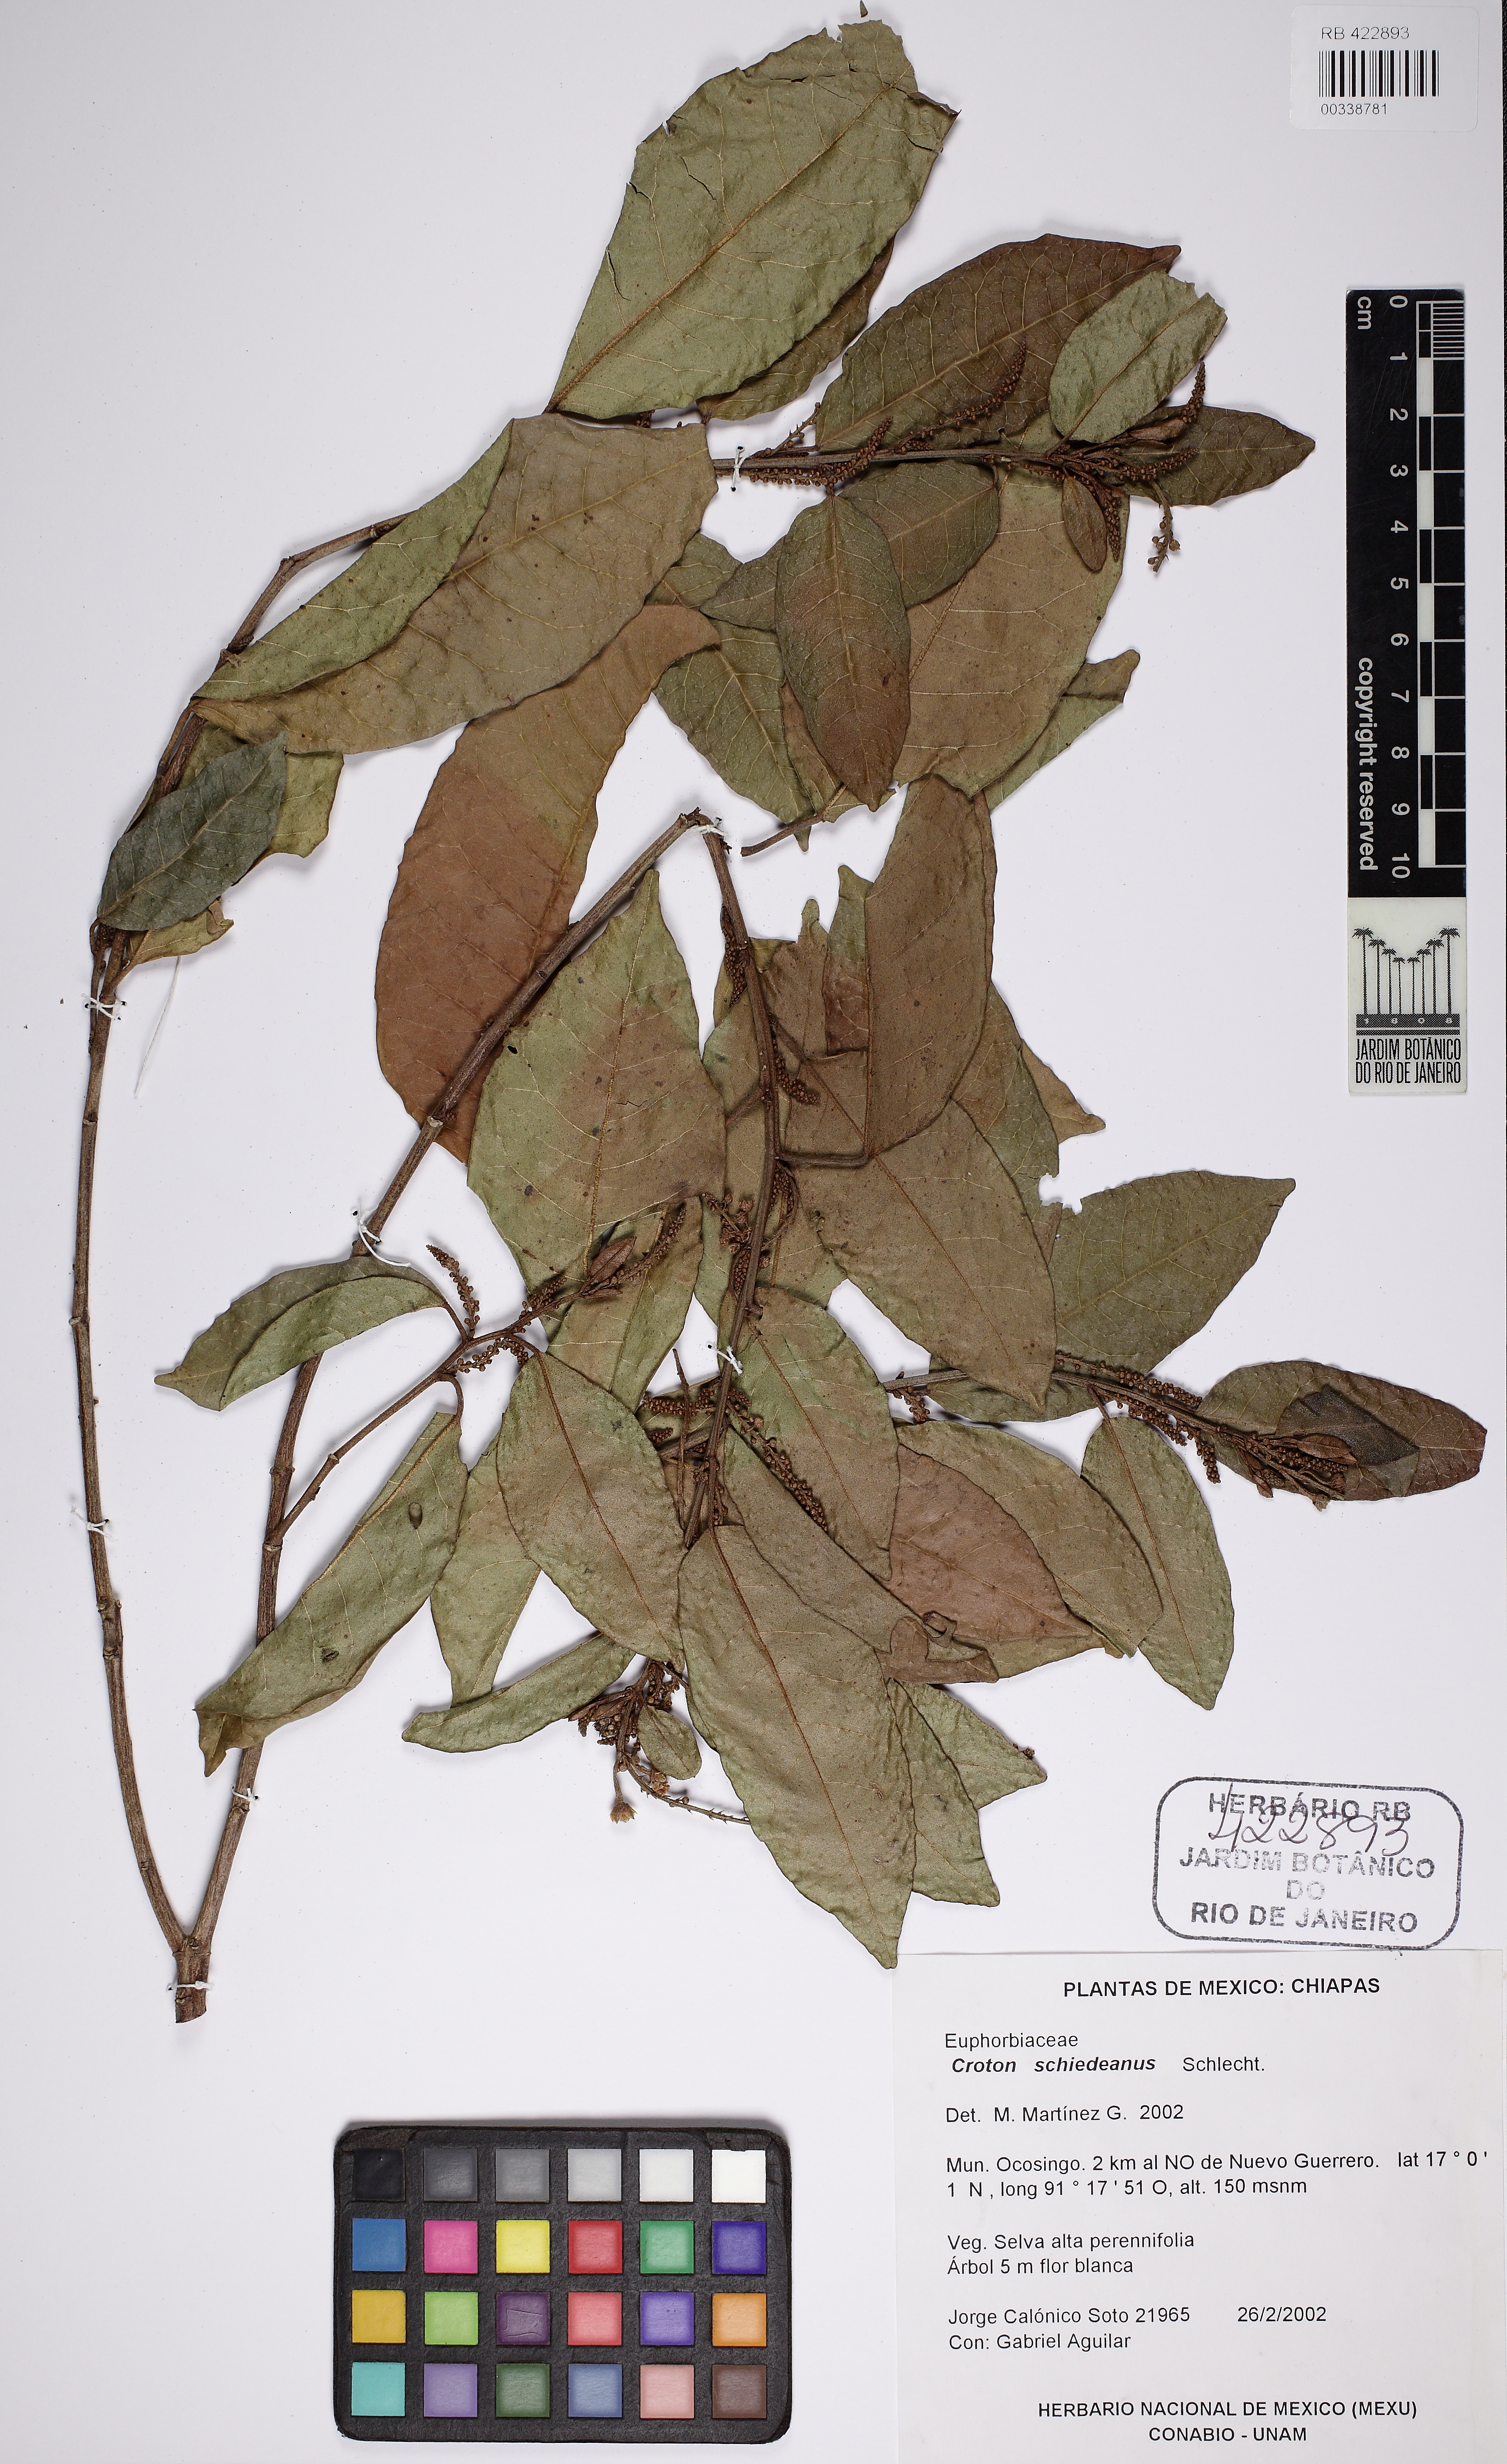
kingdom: Plantae
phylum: Tracheophyta
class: Magnoliopsida
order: Malpighiales
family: Euphorbiaceae
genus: Croton
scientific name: Croton schiedeanus
